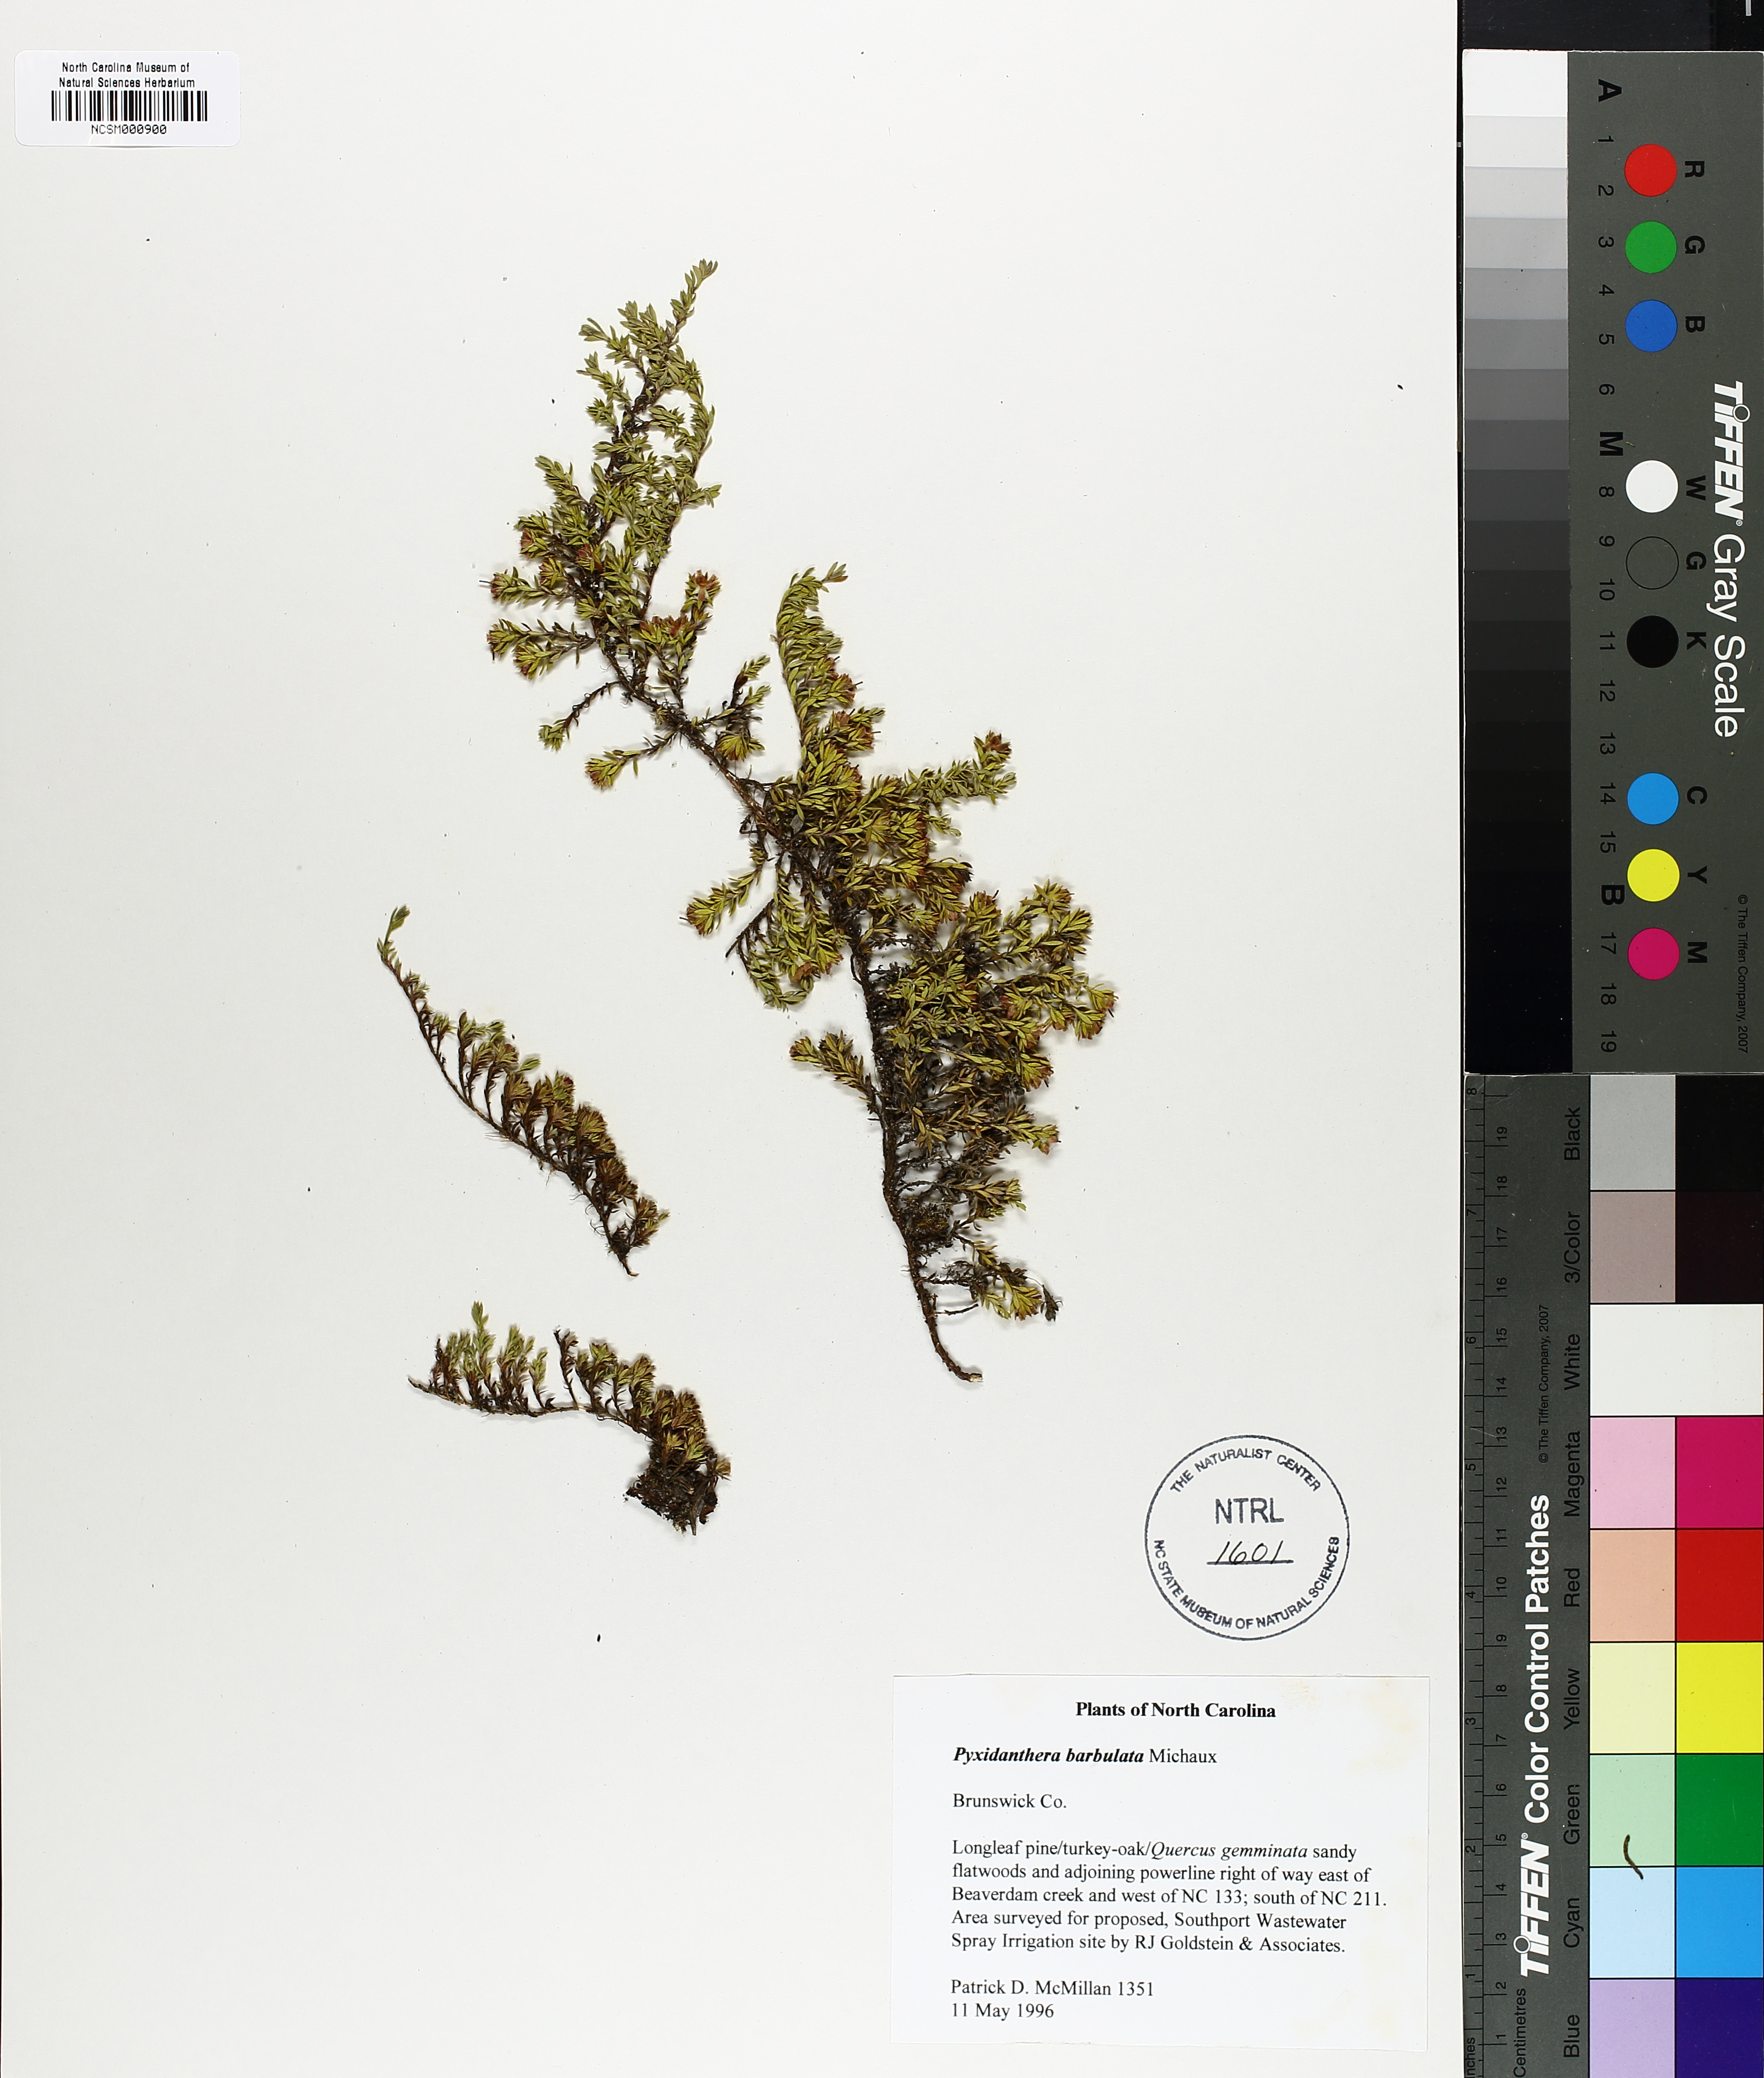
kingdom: Plantae
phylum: Tracheophyta
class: Magnoliopsida
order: Ericales
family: Diapensiaceae
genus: Pyxidanthera
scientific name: Pyxidanthera barbulata
